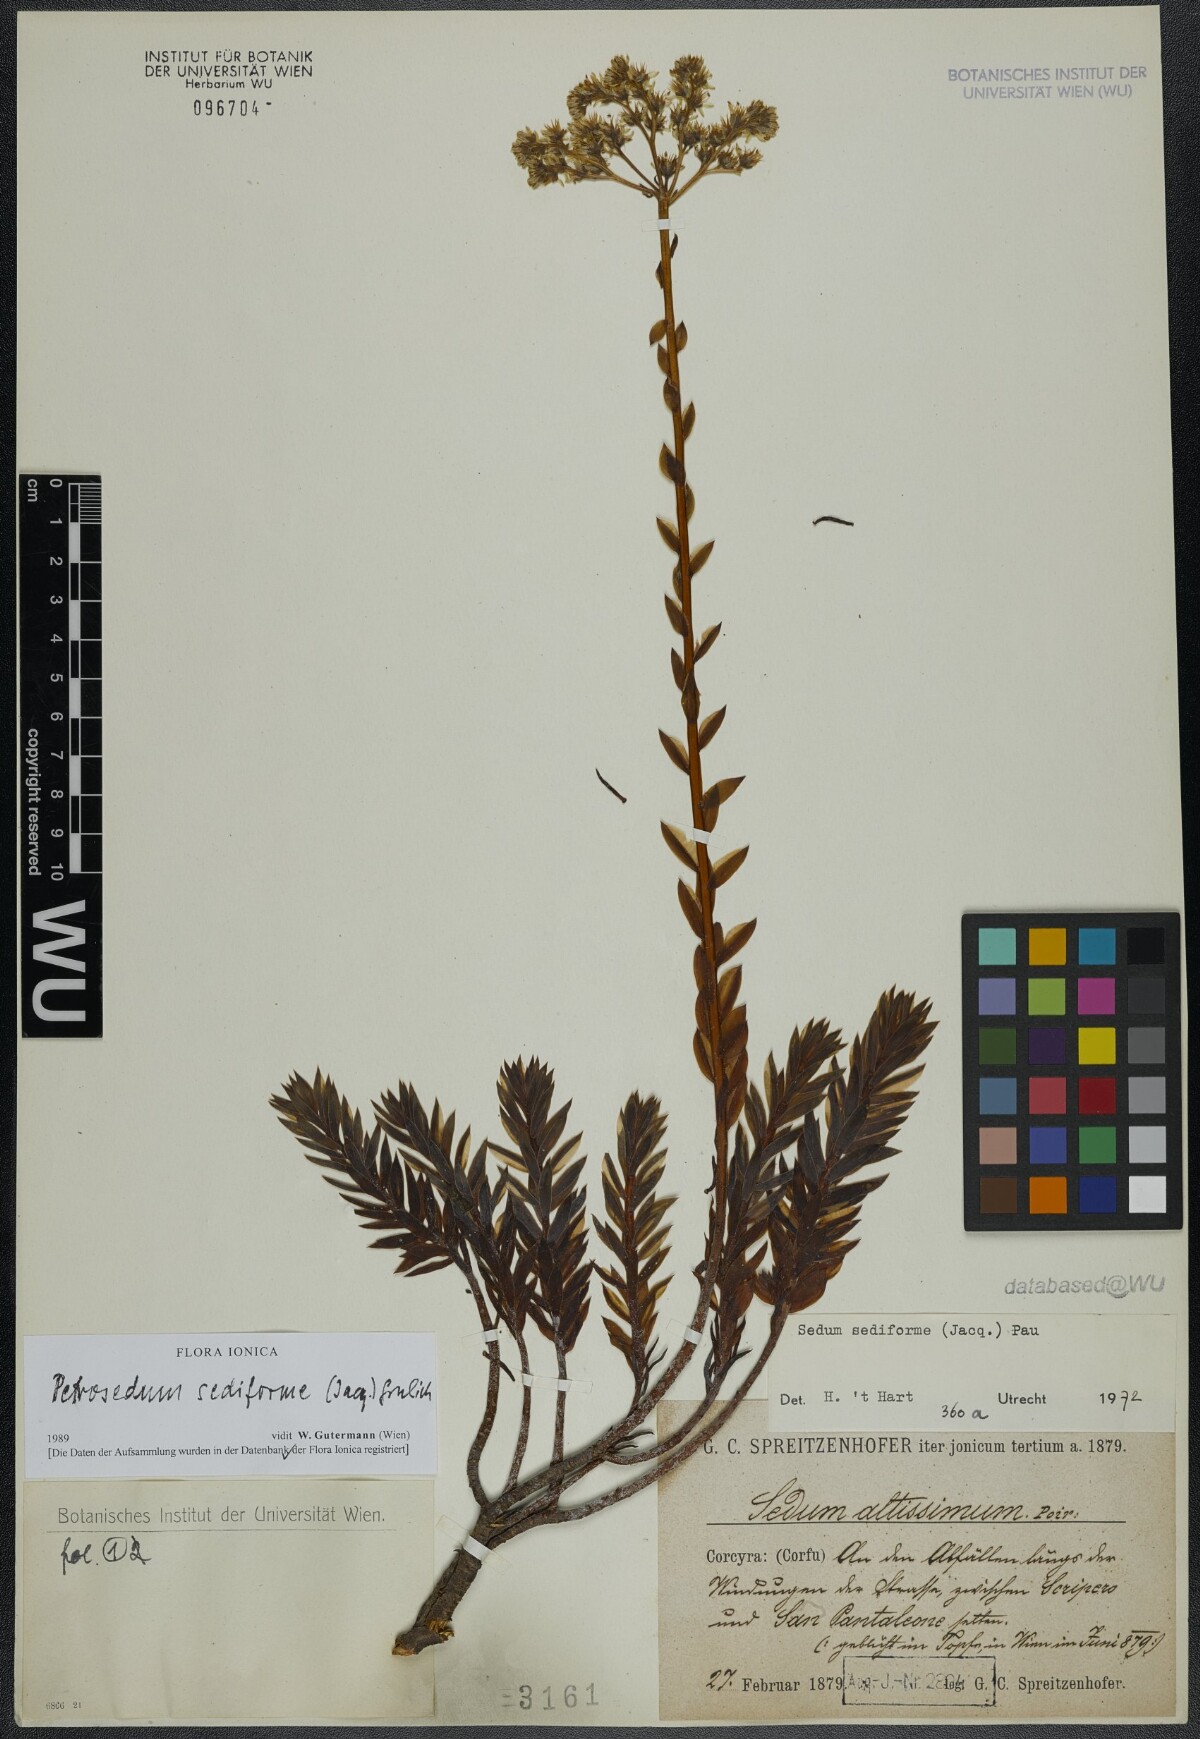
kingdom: Plantae
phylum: Tracheophyta
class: Magnoliopsida
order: Saxifragales
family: Crassulaceae
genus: Petrosedum
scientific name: Petrosedum sediforme
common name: Pale stonecrop
